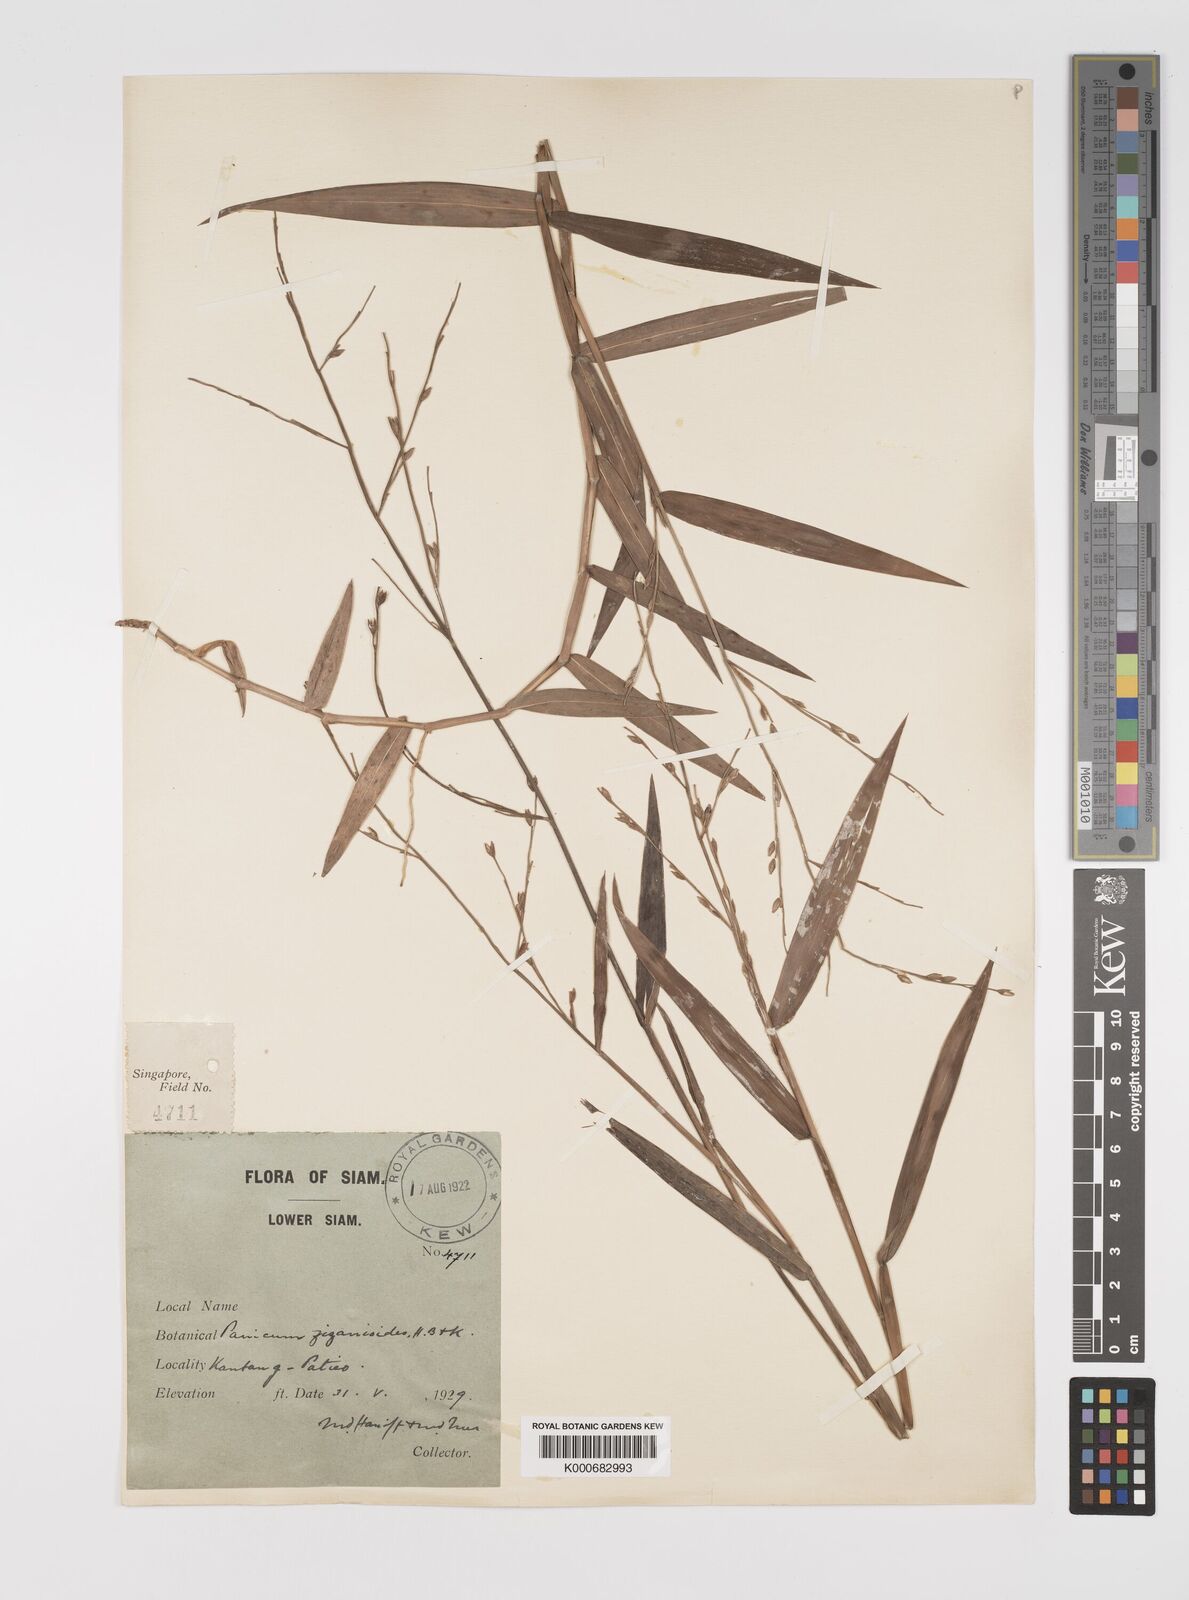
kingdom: Plantae
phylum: Tracheophyta
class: Liliopsida
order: Poales
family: Poaceae
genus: Acroceras
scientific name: Acroceras
